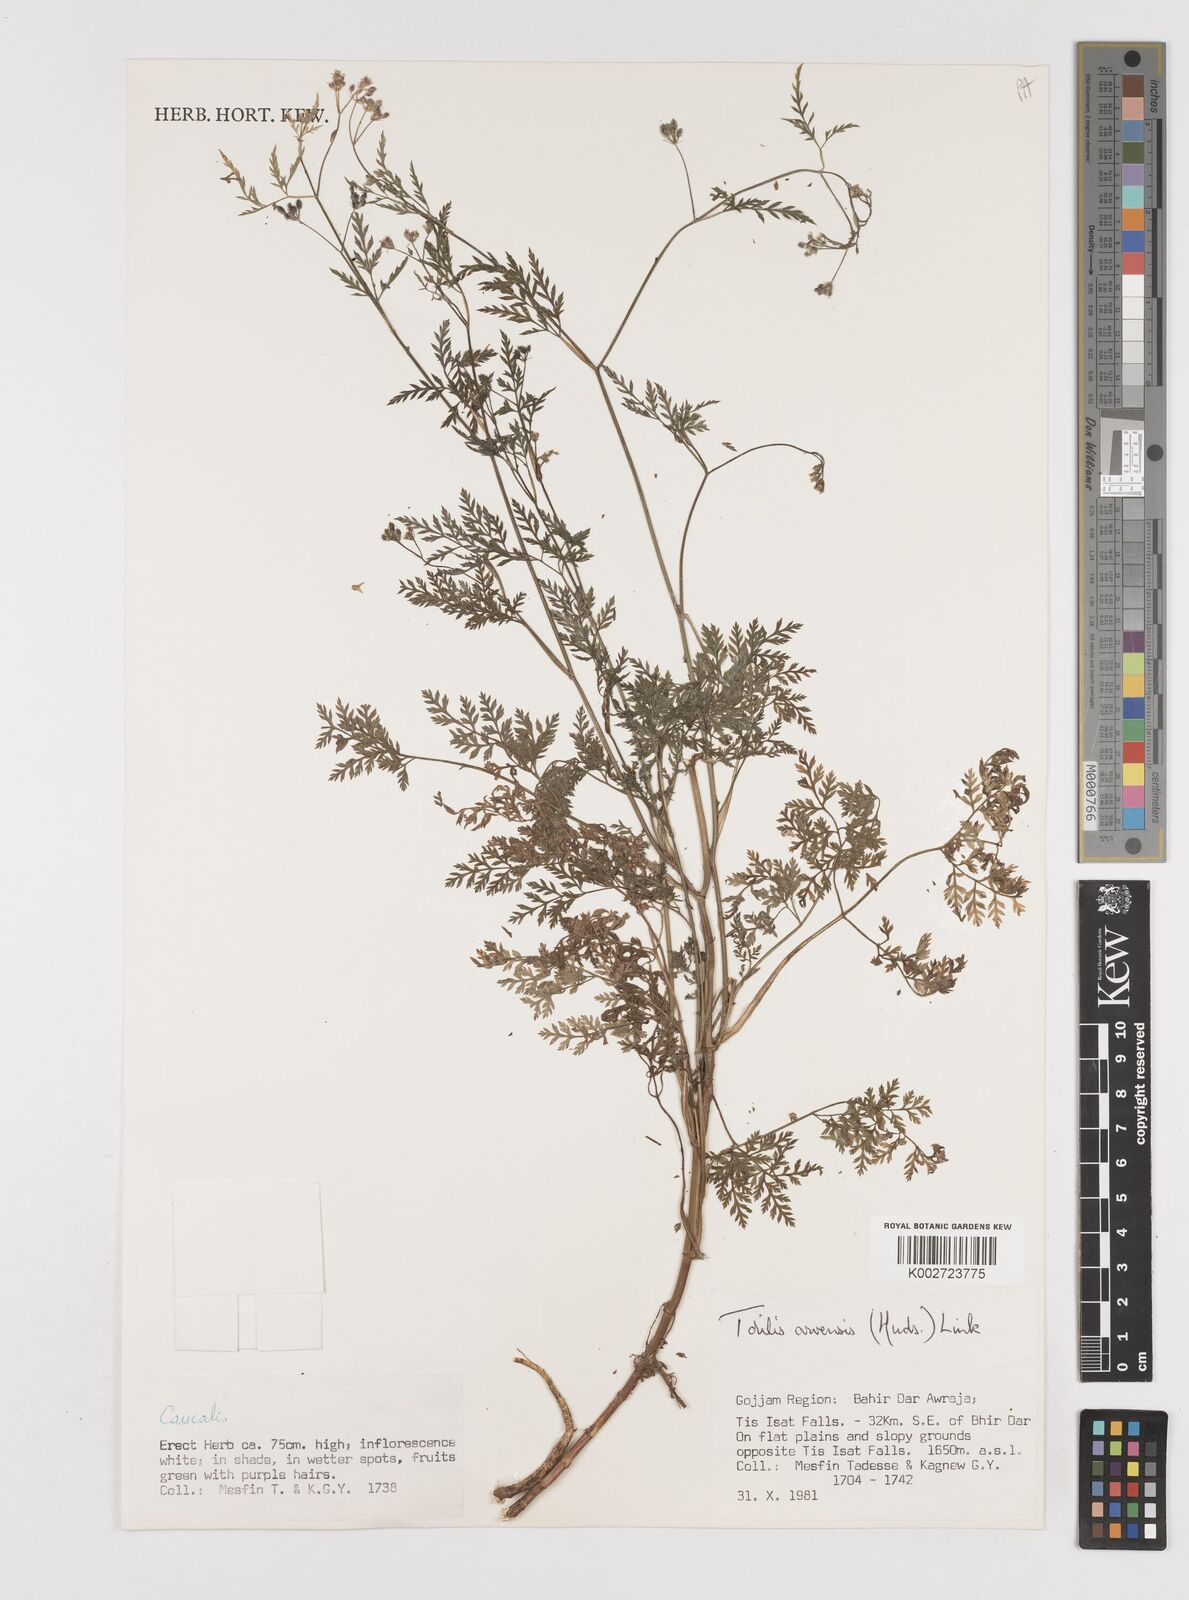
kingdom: Plantae
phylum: Tracheophyta
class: Magnoliopsida
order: Apiales
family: Apiaceae
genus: Torilis
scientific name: Torilis arvensis
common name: Spreading hedge-parsley
